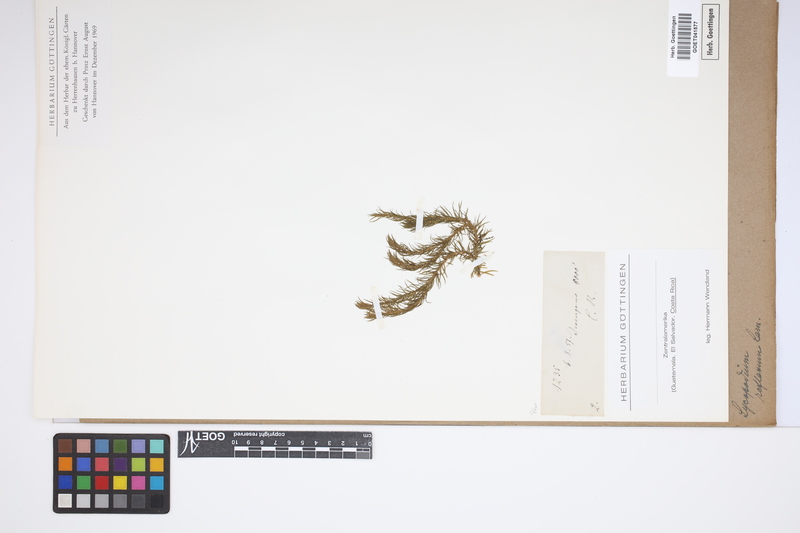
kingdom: Plantae
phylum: Tracheophyta
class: Lycopodiopsida
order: Lycopodiales
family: Lycopodiaceae
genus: Huperzia
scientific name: Huperzia lucidula
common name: Shining clubmoss
